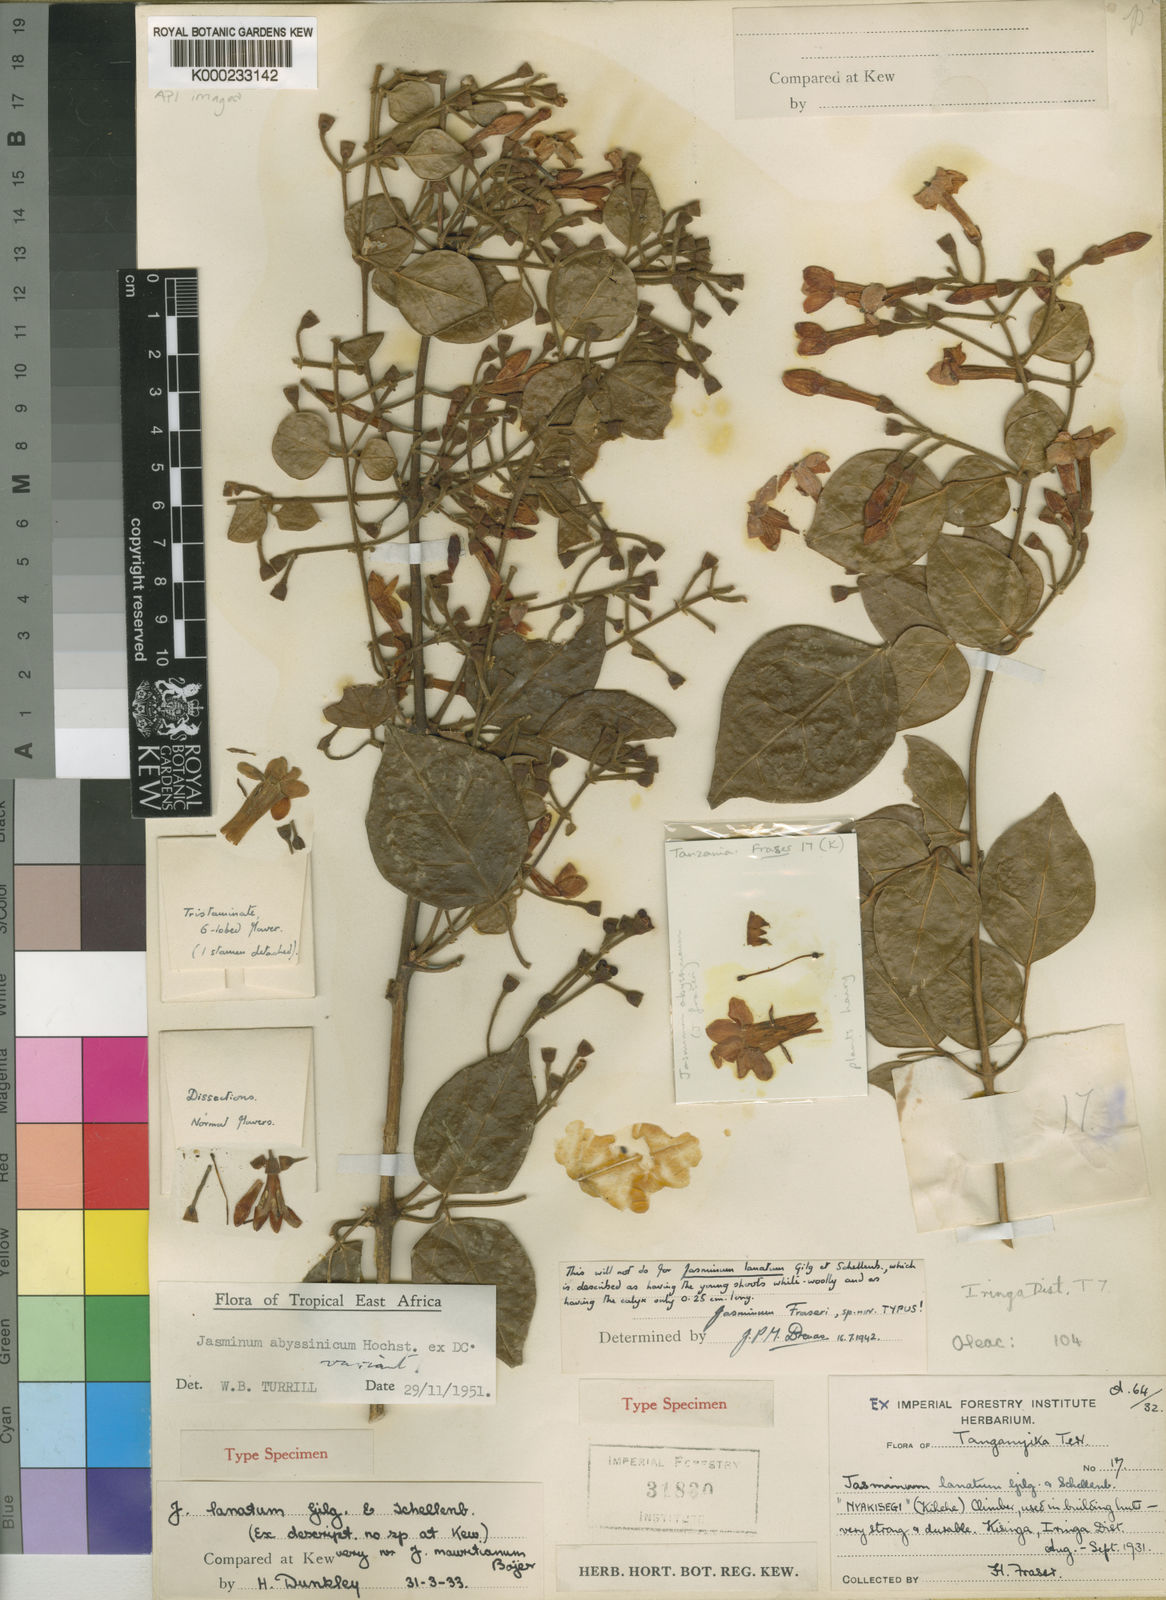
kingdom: Plantae
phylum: Tracheophyta
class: Magnoliopsida
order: Lamiales
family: Oleaceae
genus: Jasminum
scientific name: Jasminum abyssinicum
